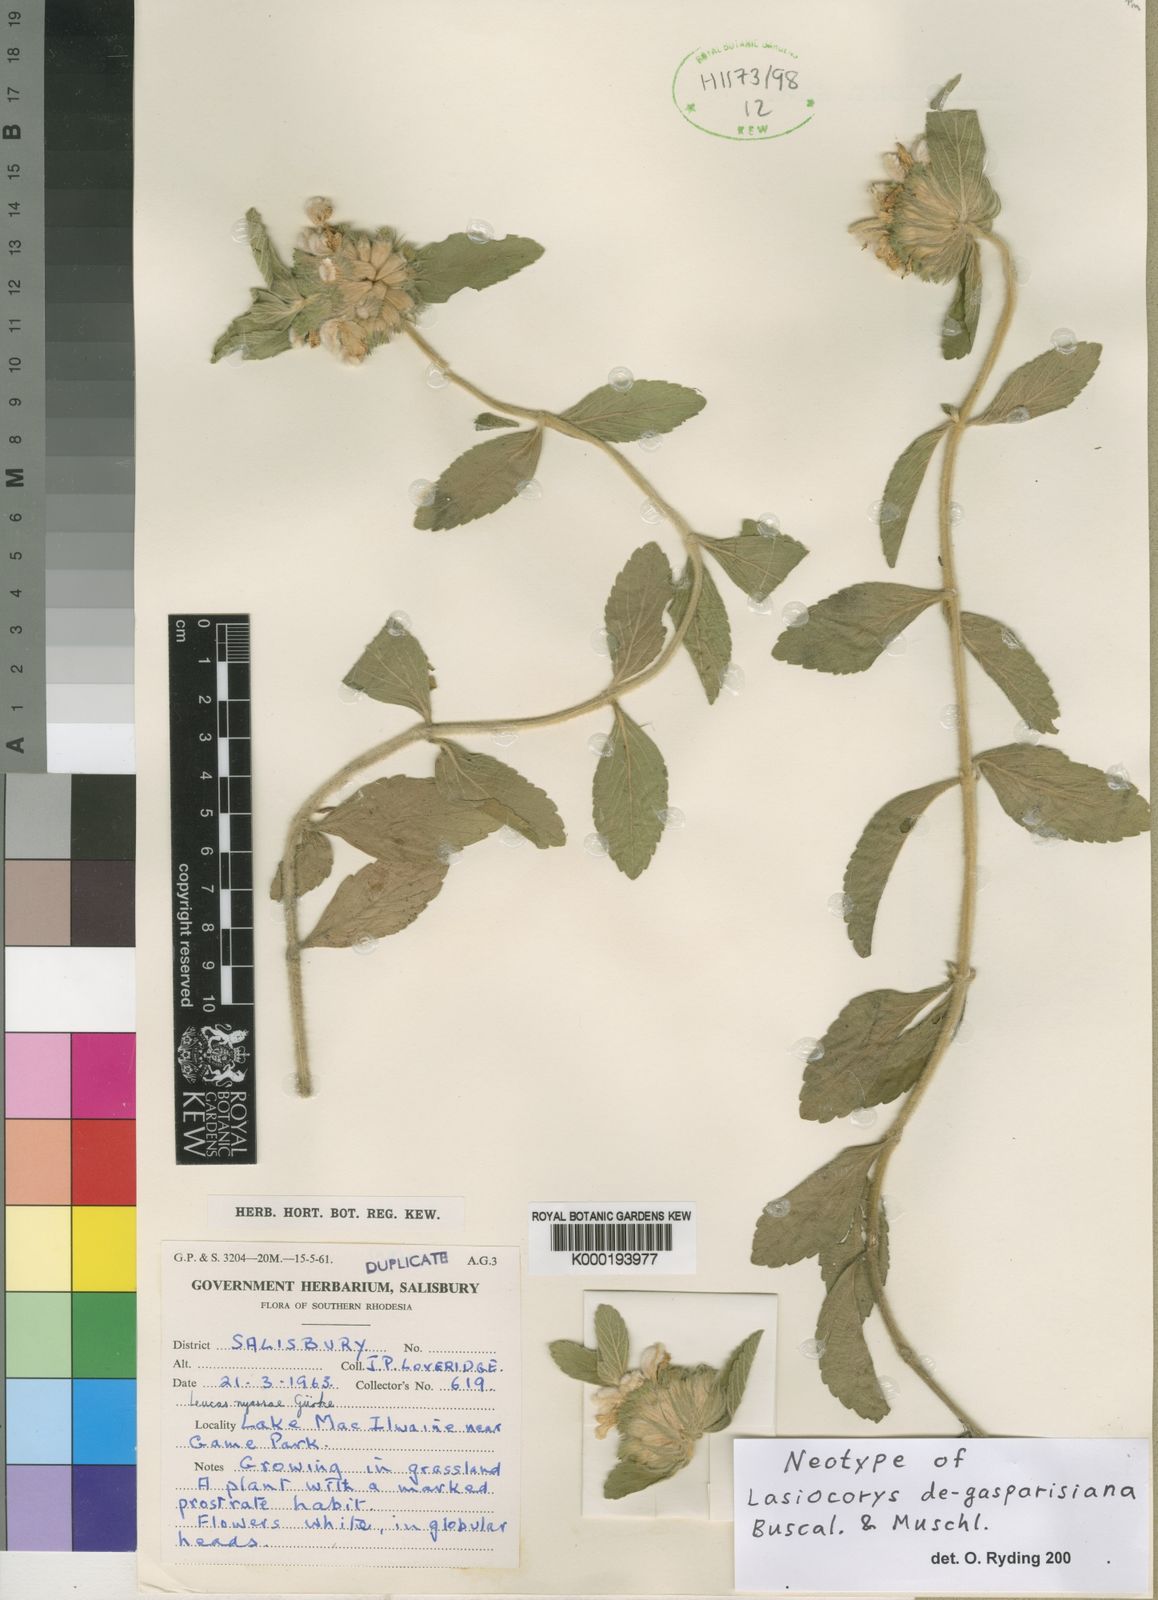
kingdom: Plantae
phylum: Tracheophyta
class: Magnoliopsida
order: Lamiales
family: Lamiaceae
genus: Leucas
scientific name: Leucas
